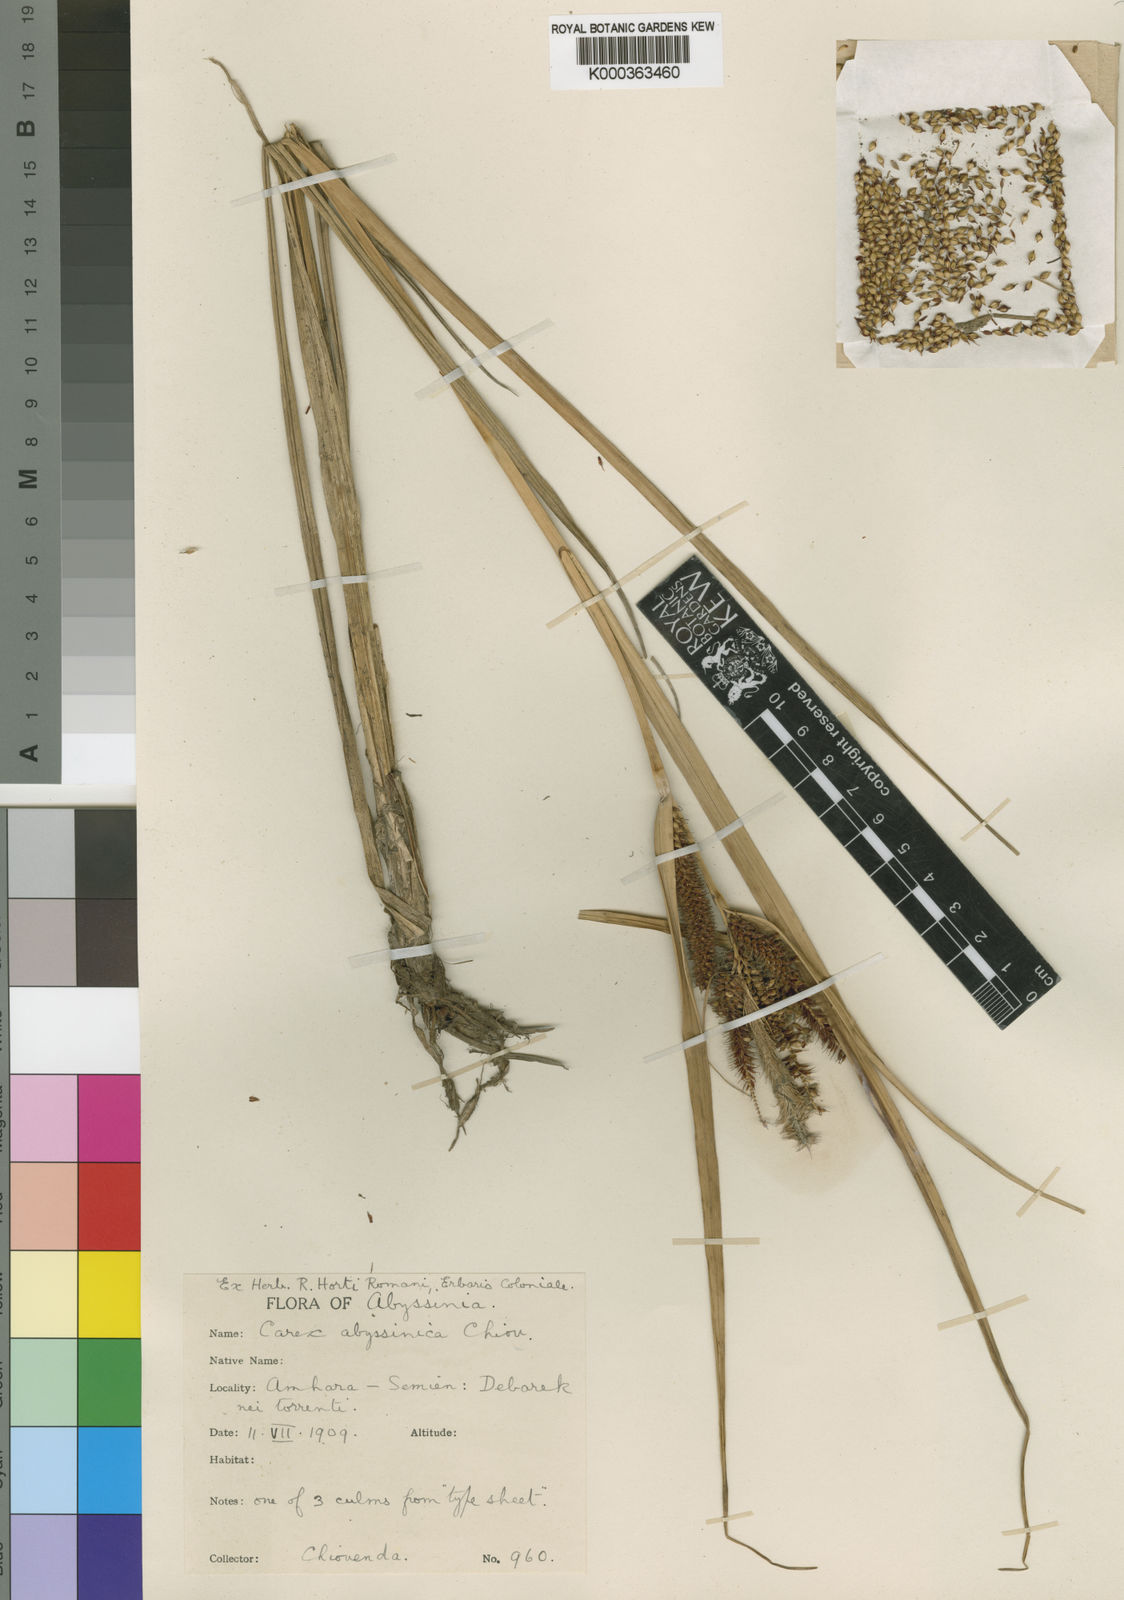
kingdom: Plantae
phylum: Tracheophyta
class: Liliopsida
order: Poales
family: Cyperaceae
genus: Carex
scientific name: Carex phragmitoides
